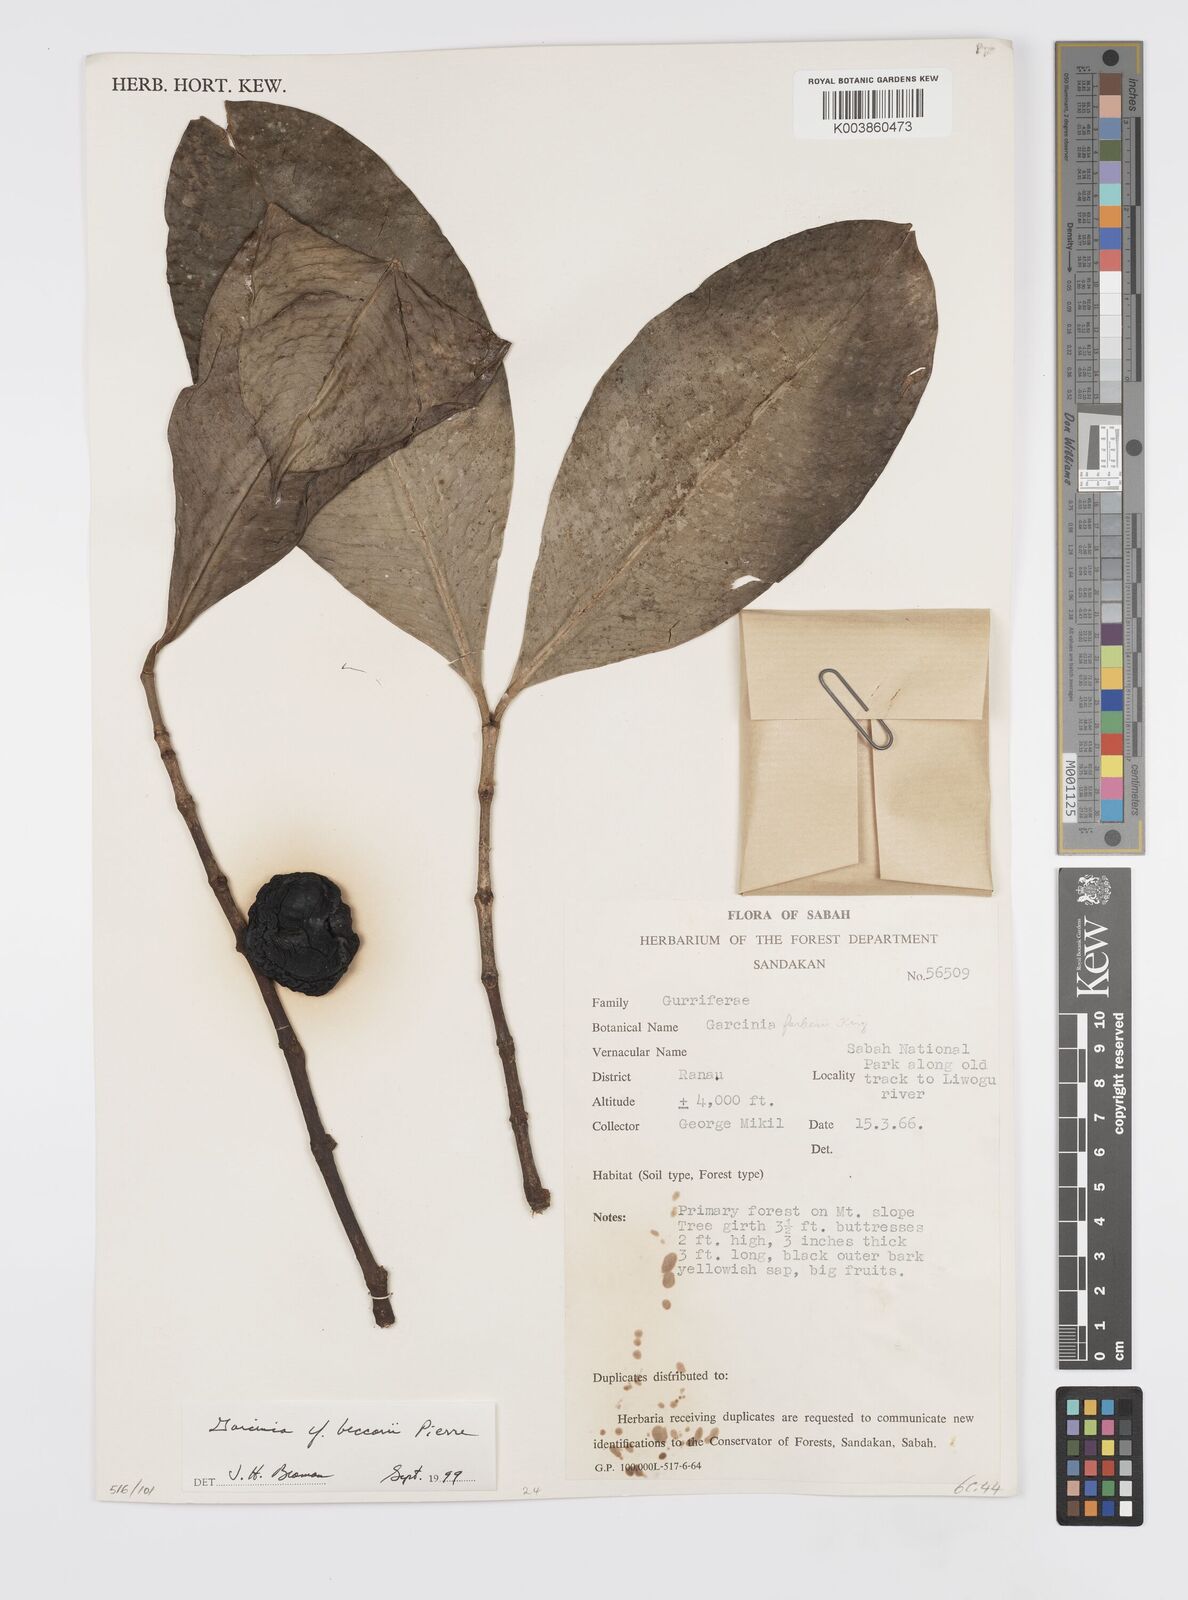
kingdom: Plantae
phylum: Tracheophyta
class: Magnoliopsida
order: Malpighiales
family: Clusiaceae
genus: Garcinia
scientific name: Garcinia beccarii
